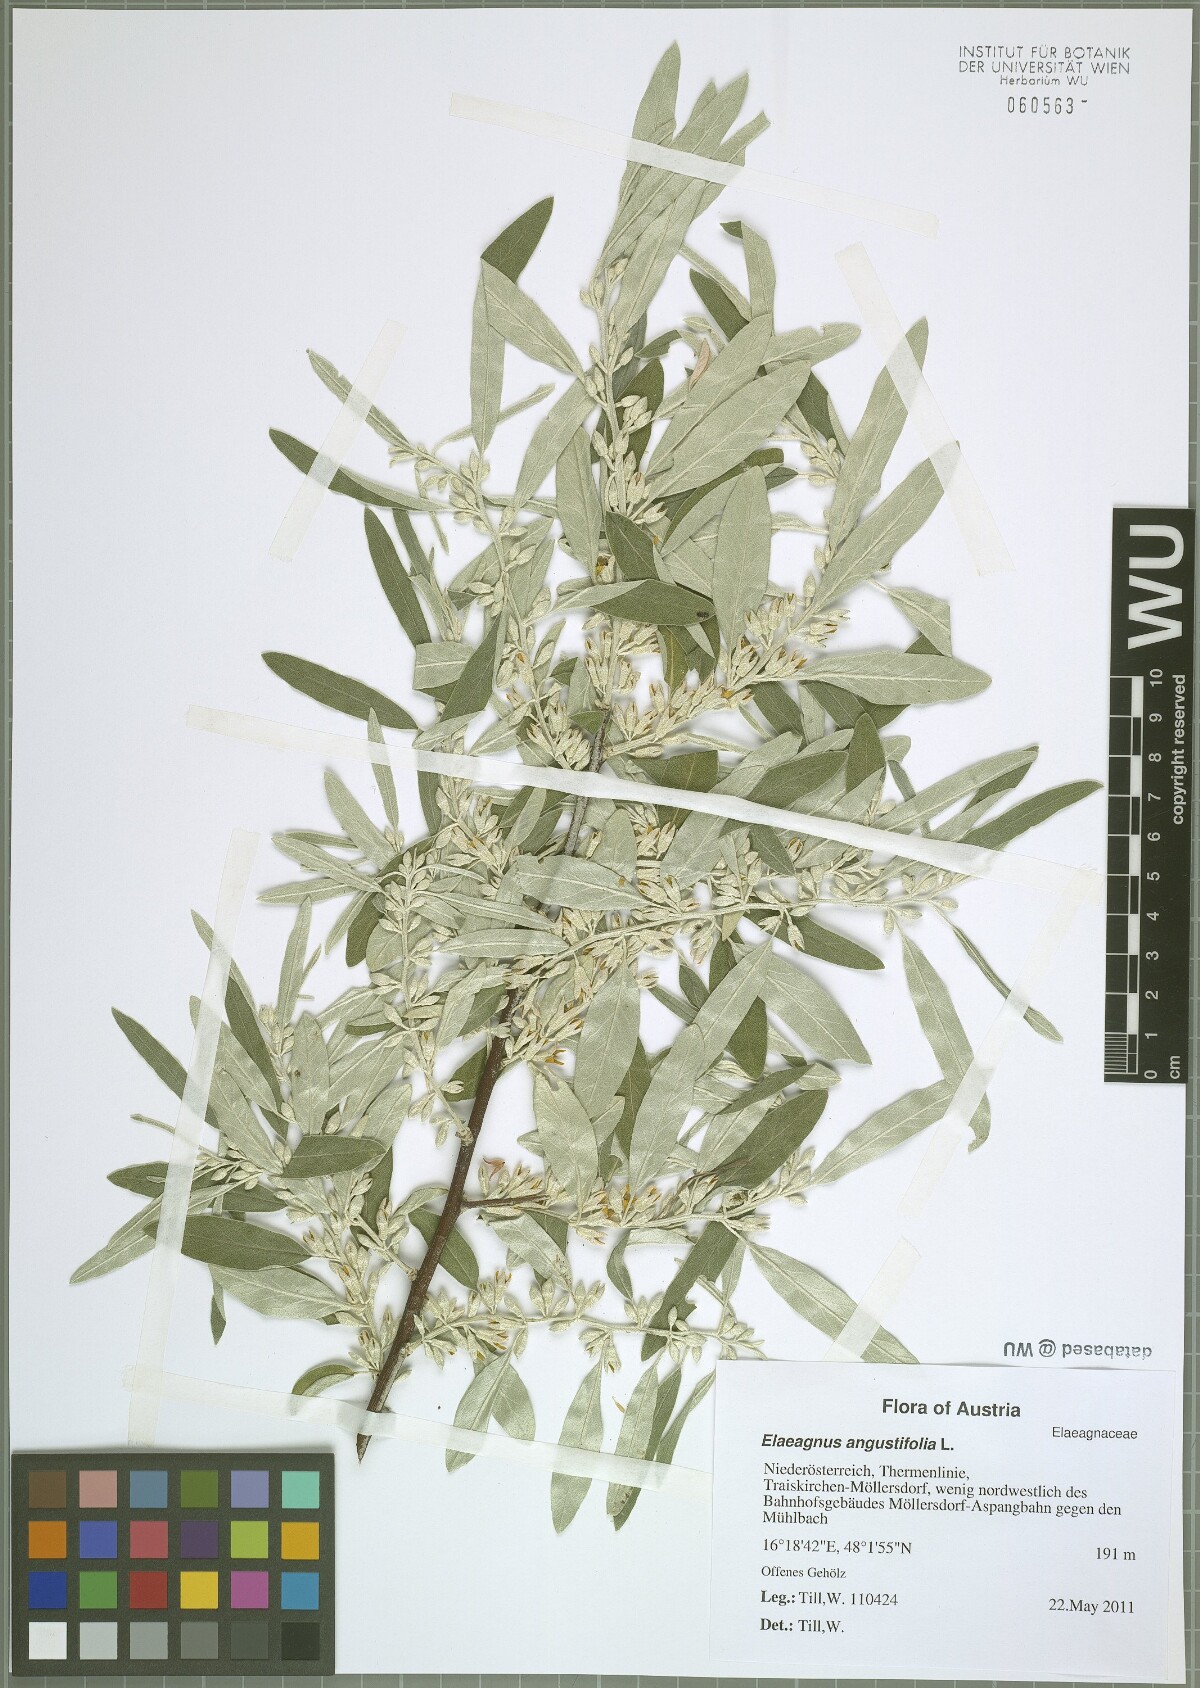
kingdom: Plantae
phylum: Tracheophyta
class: Magnoliopsida
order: Rosales
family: Elaeagnaceae
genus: Elaeagnus
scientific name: Elaeagnus angustifolia
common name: Russian olive
